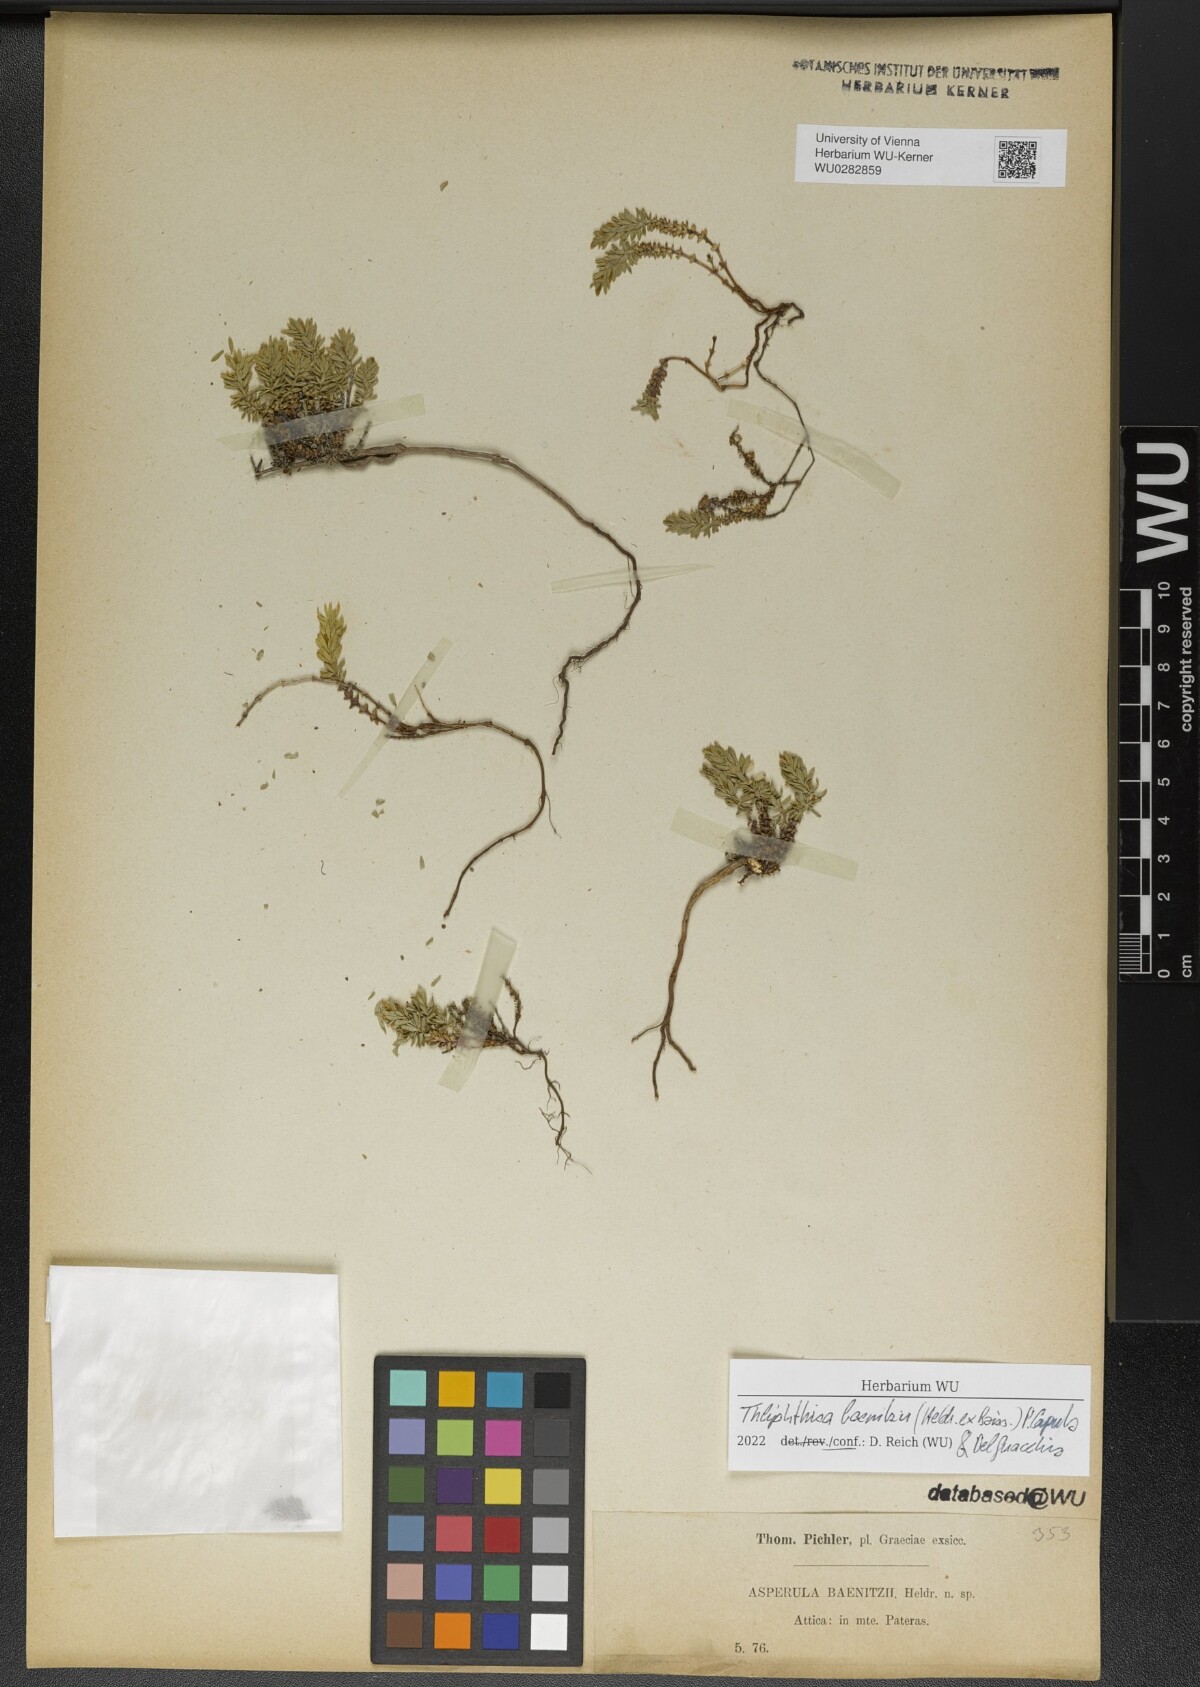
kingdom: Plantae
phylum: Tracheophyta
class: Magnoliopsida
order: Gentianales
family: Rubiaceae
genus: Thliphthisa
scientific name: Thliphthisa baenitzii
